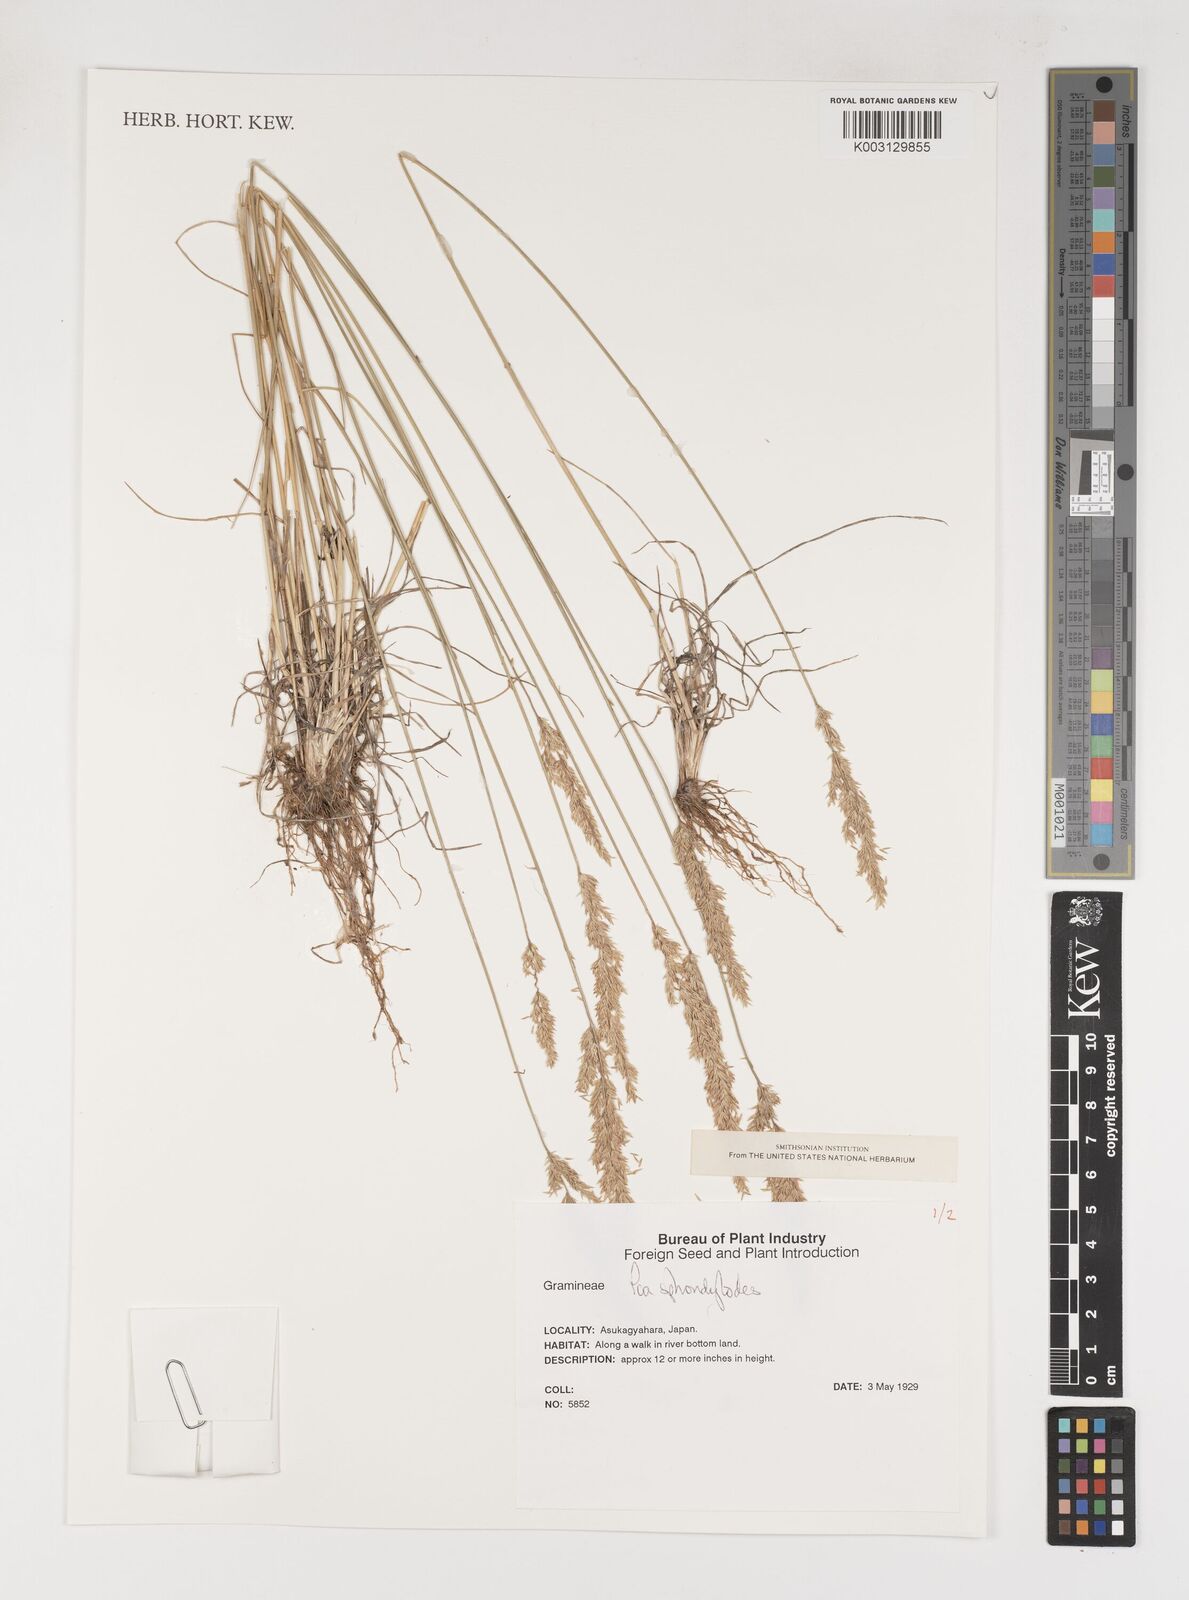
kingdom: Plantae
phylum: Tracheophyta
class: Liliopsida
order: Poales
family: Poaceae
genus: Poa
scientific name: Poa sphondylodes
